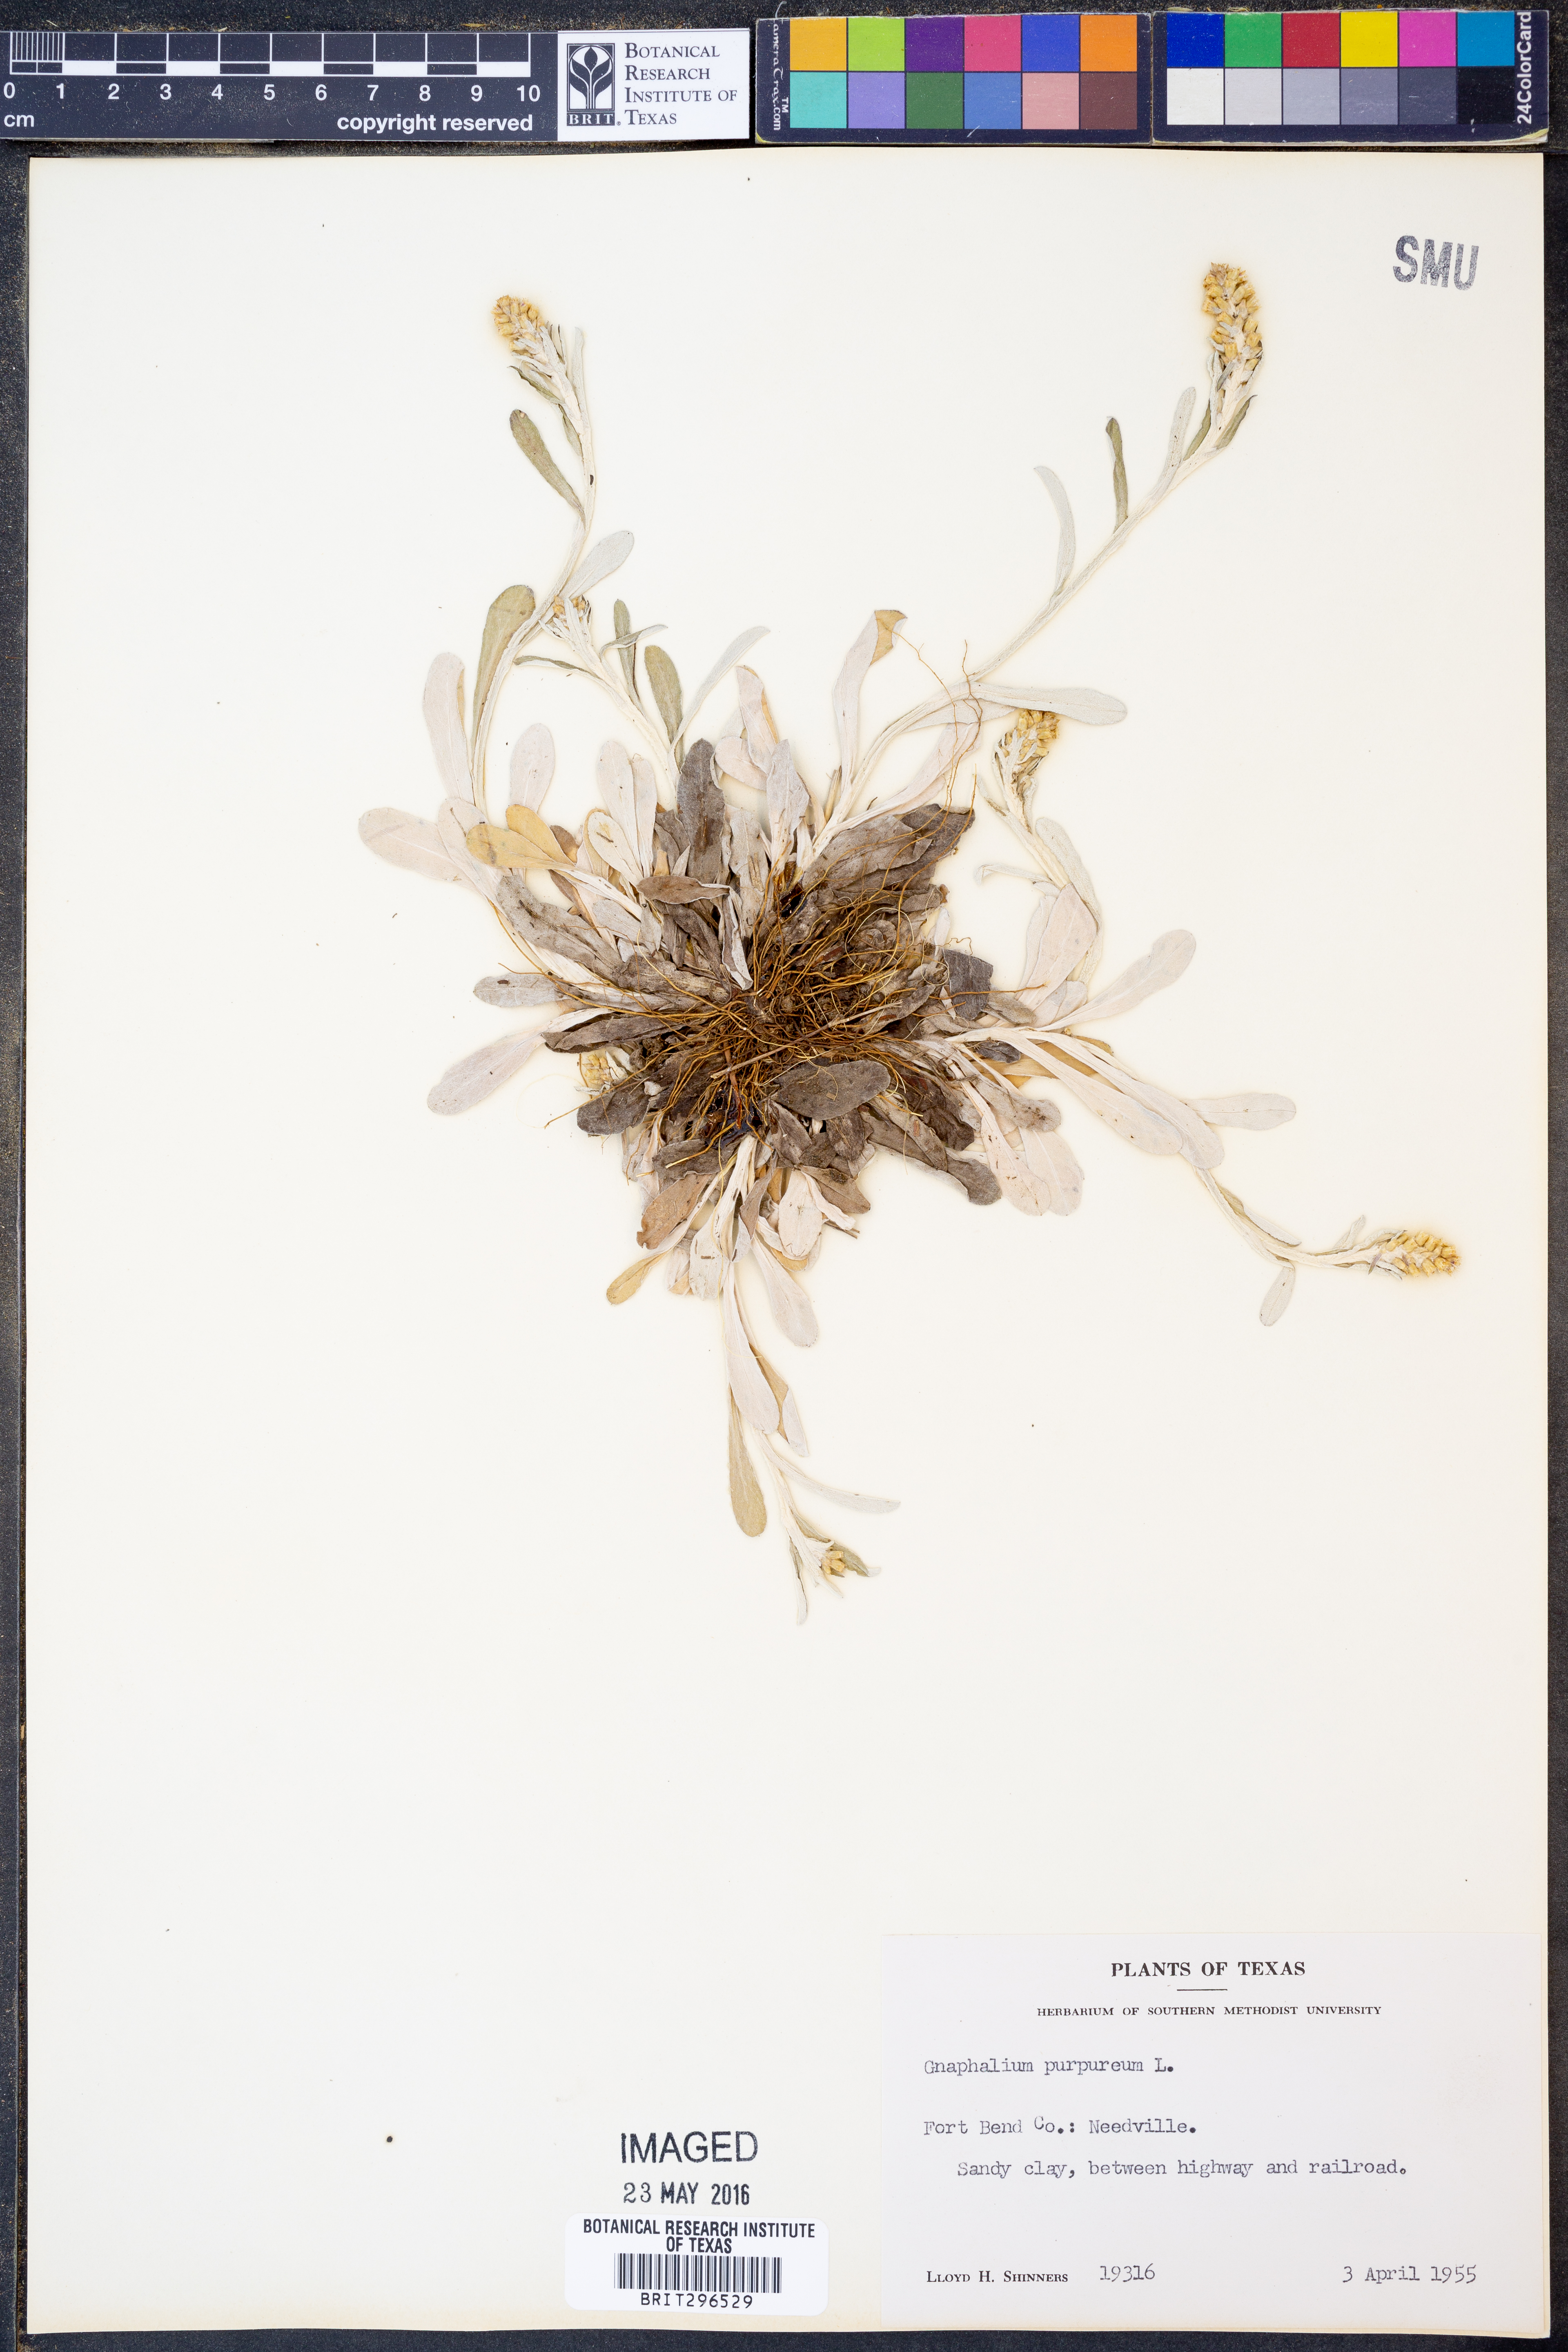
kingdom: Plantae
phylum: Tracheophyta
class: Magnoliopsida
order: Asterales
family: Asteraceae
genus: Gamochaeta
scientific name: Gamochaeta purpurea
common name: Purple cudweed
